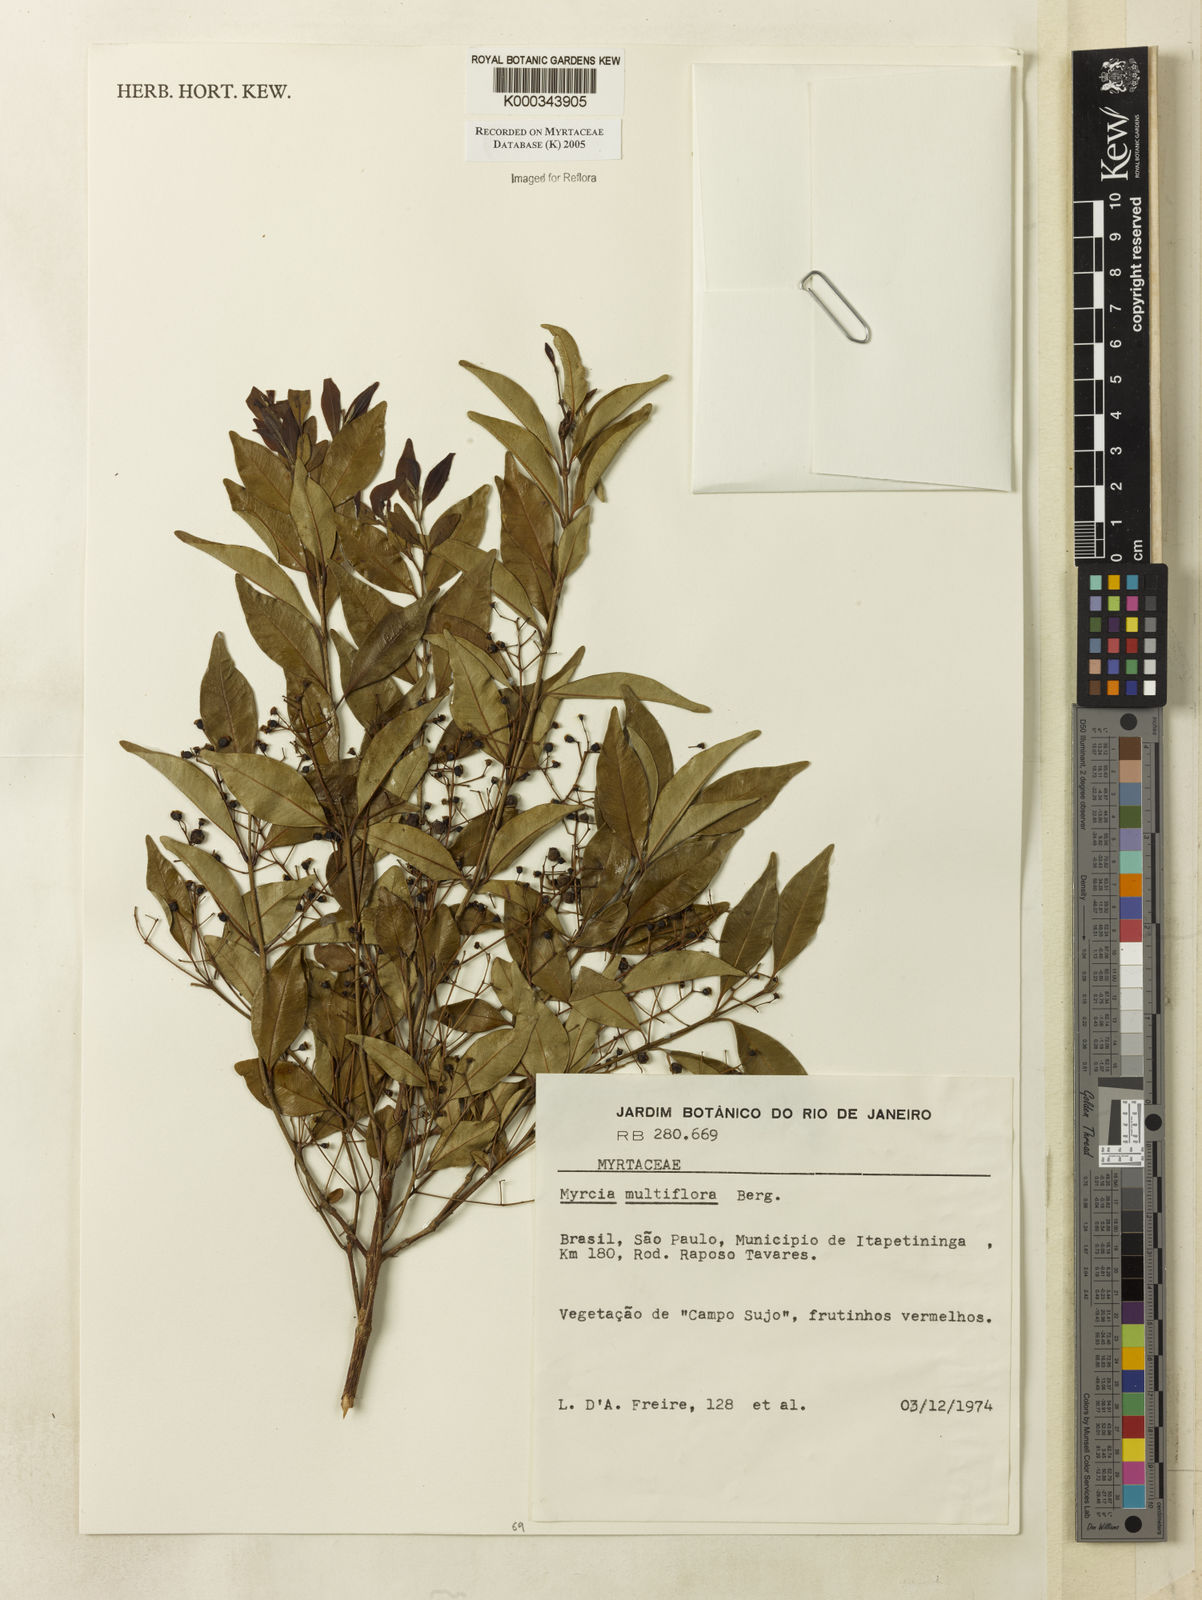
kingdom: Plantae
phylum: Tracheophyta
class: Magnoliopsida
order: Myrtales
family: Myrtaceae
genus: Myrcia
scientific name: Myrcia multiflora
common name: Pedra hume
